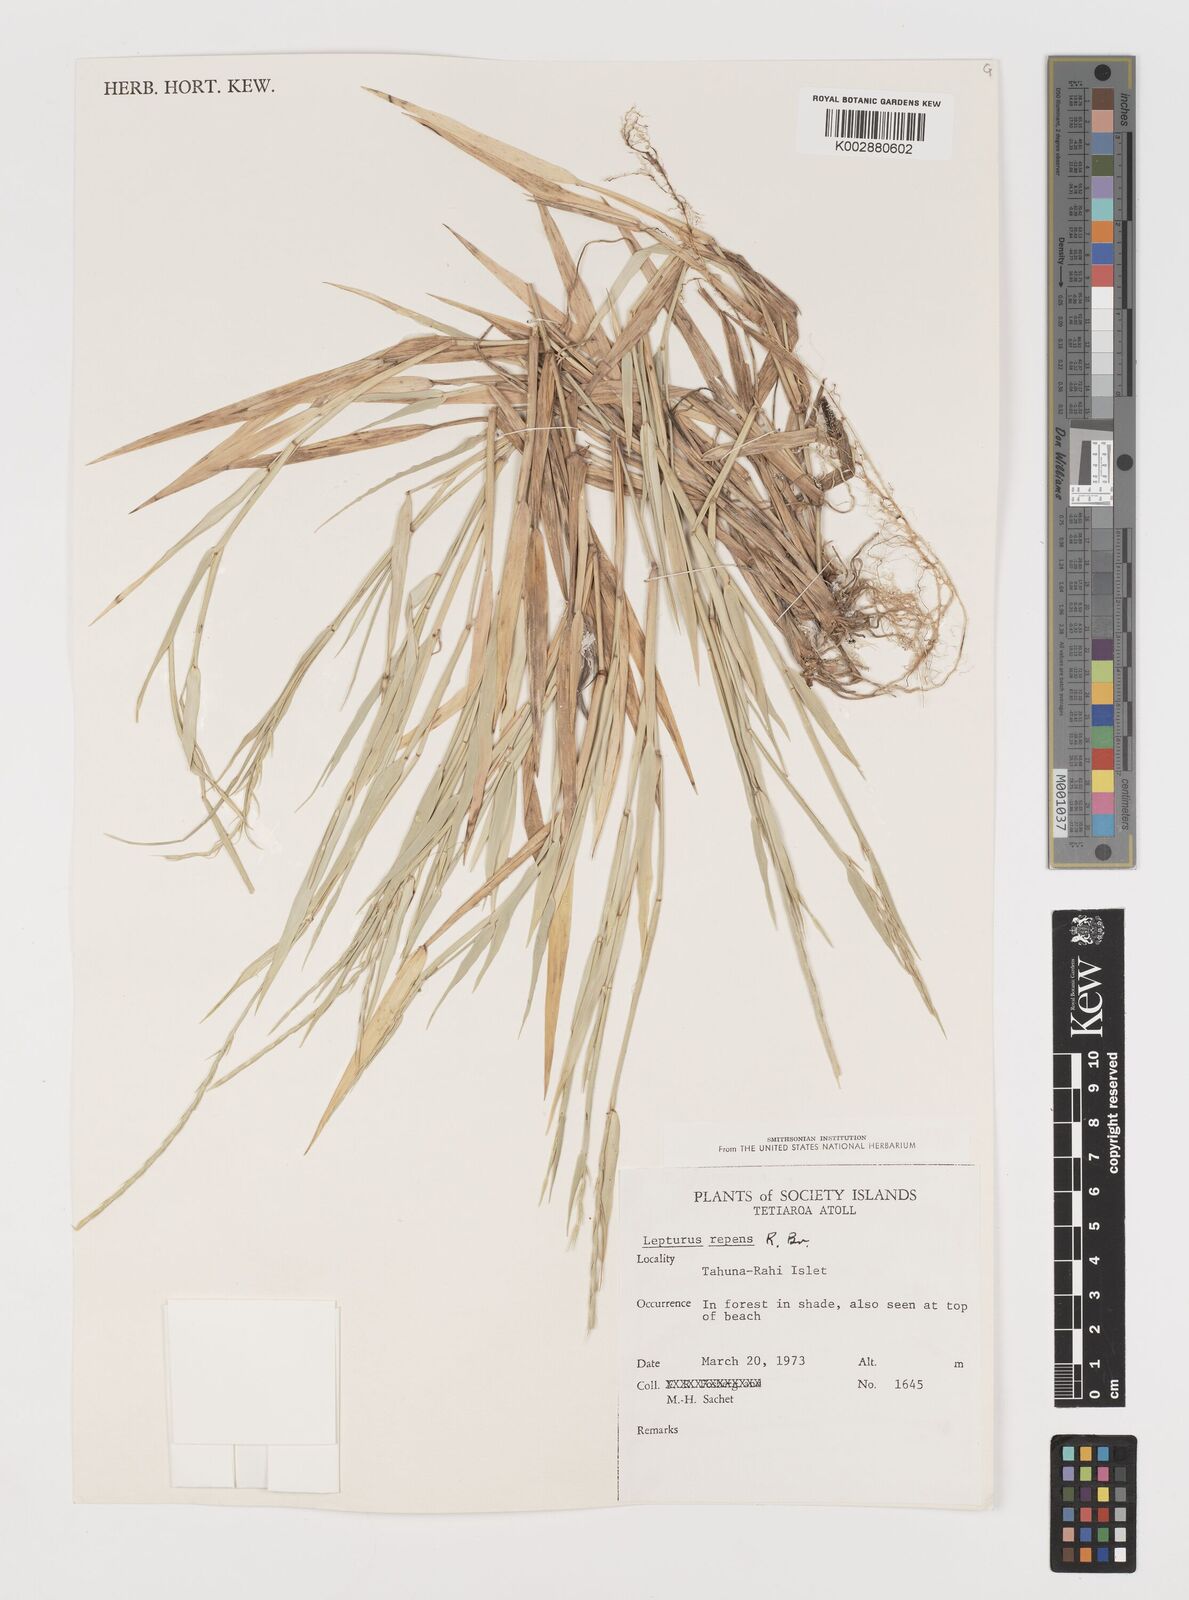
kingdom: Plantae
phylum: Tracheophyta
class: Liliopsida
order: Poales
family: Poaceae
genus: Lepturus
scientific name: Lepturus repens
